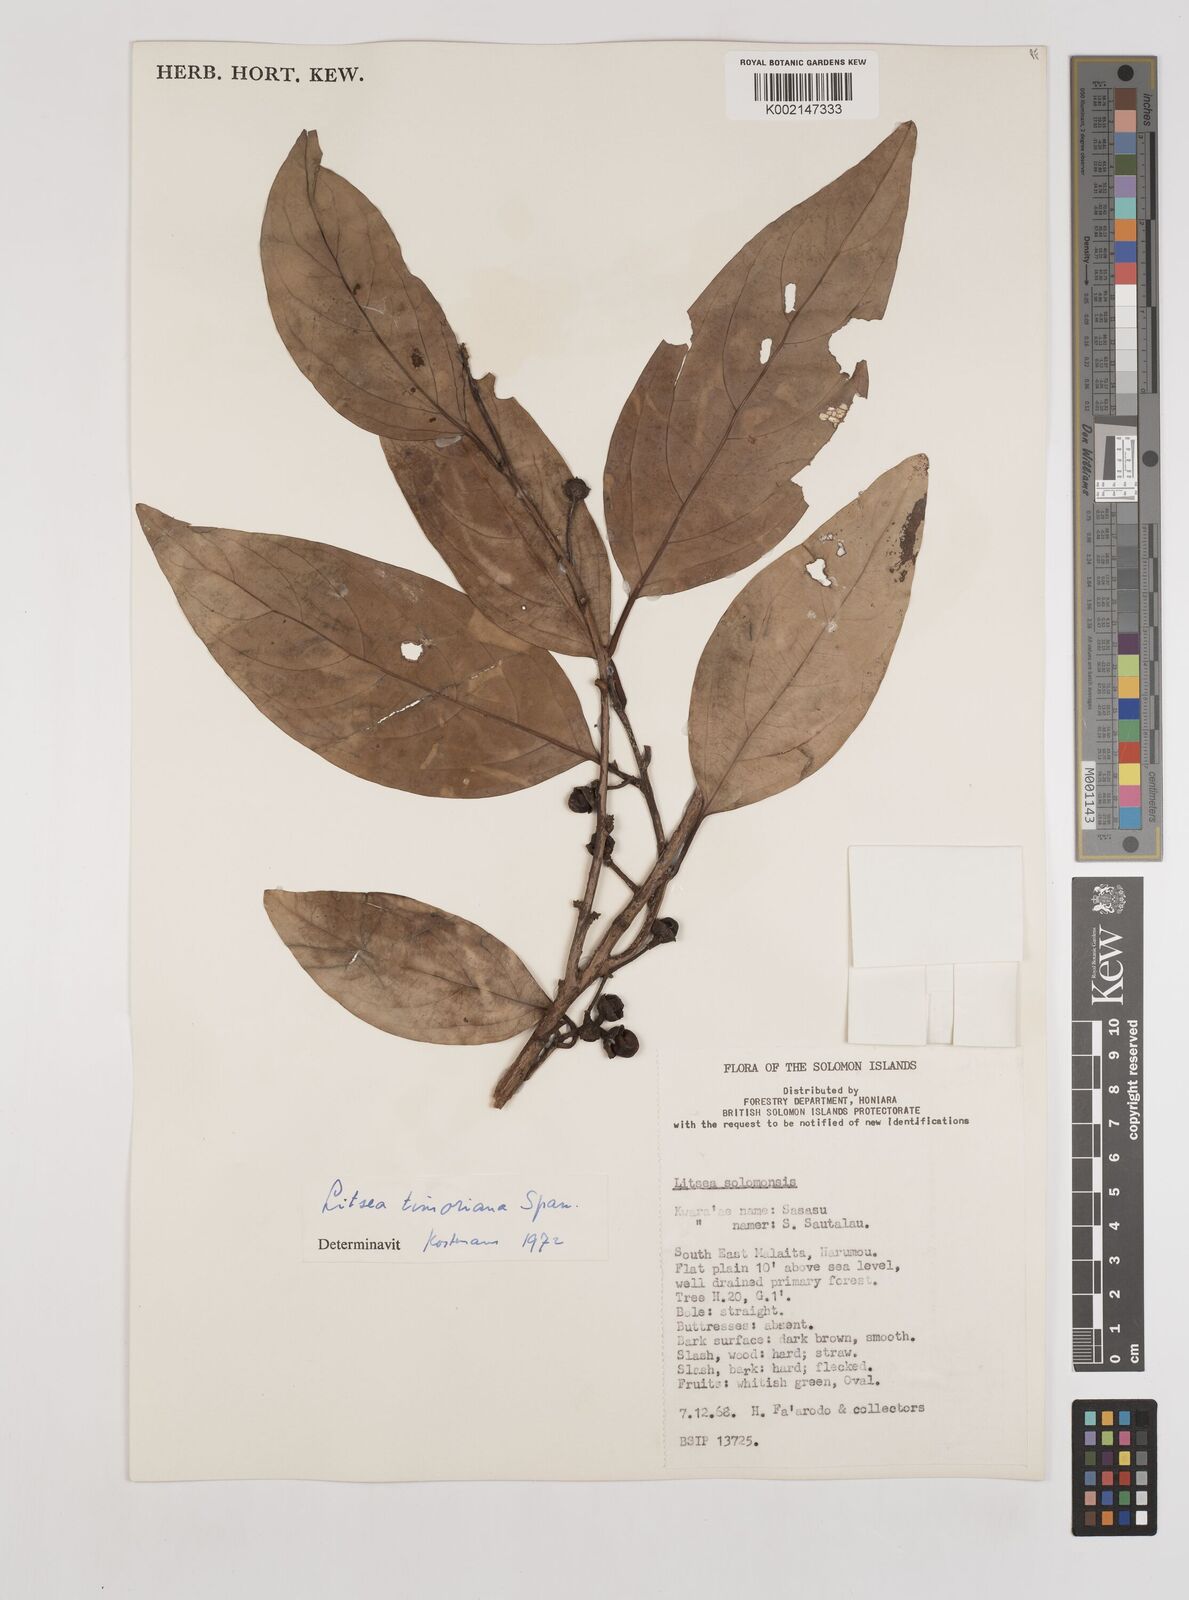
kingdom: Plantae
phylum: Tracheophyta
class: Magnoliopsida
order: Laurales
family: Lauraceae
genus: Litsea
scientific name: Litsea timoriana
